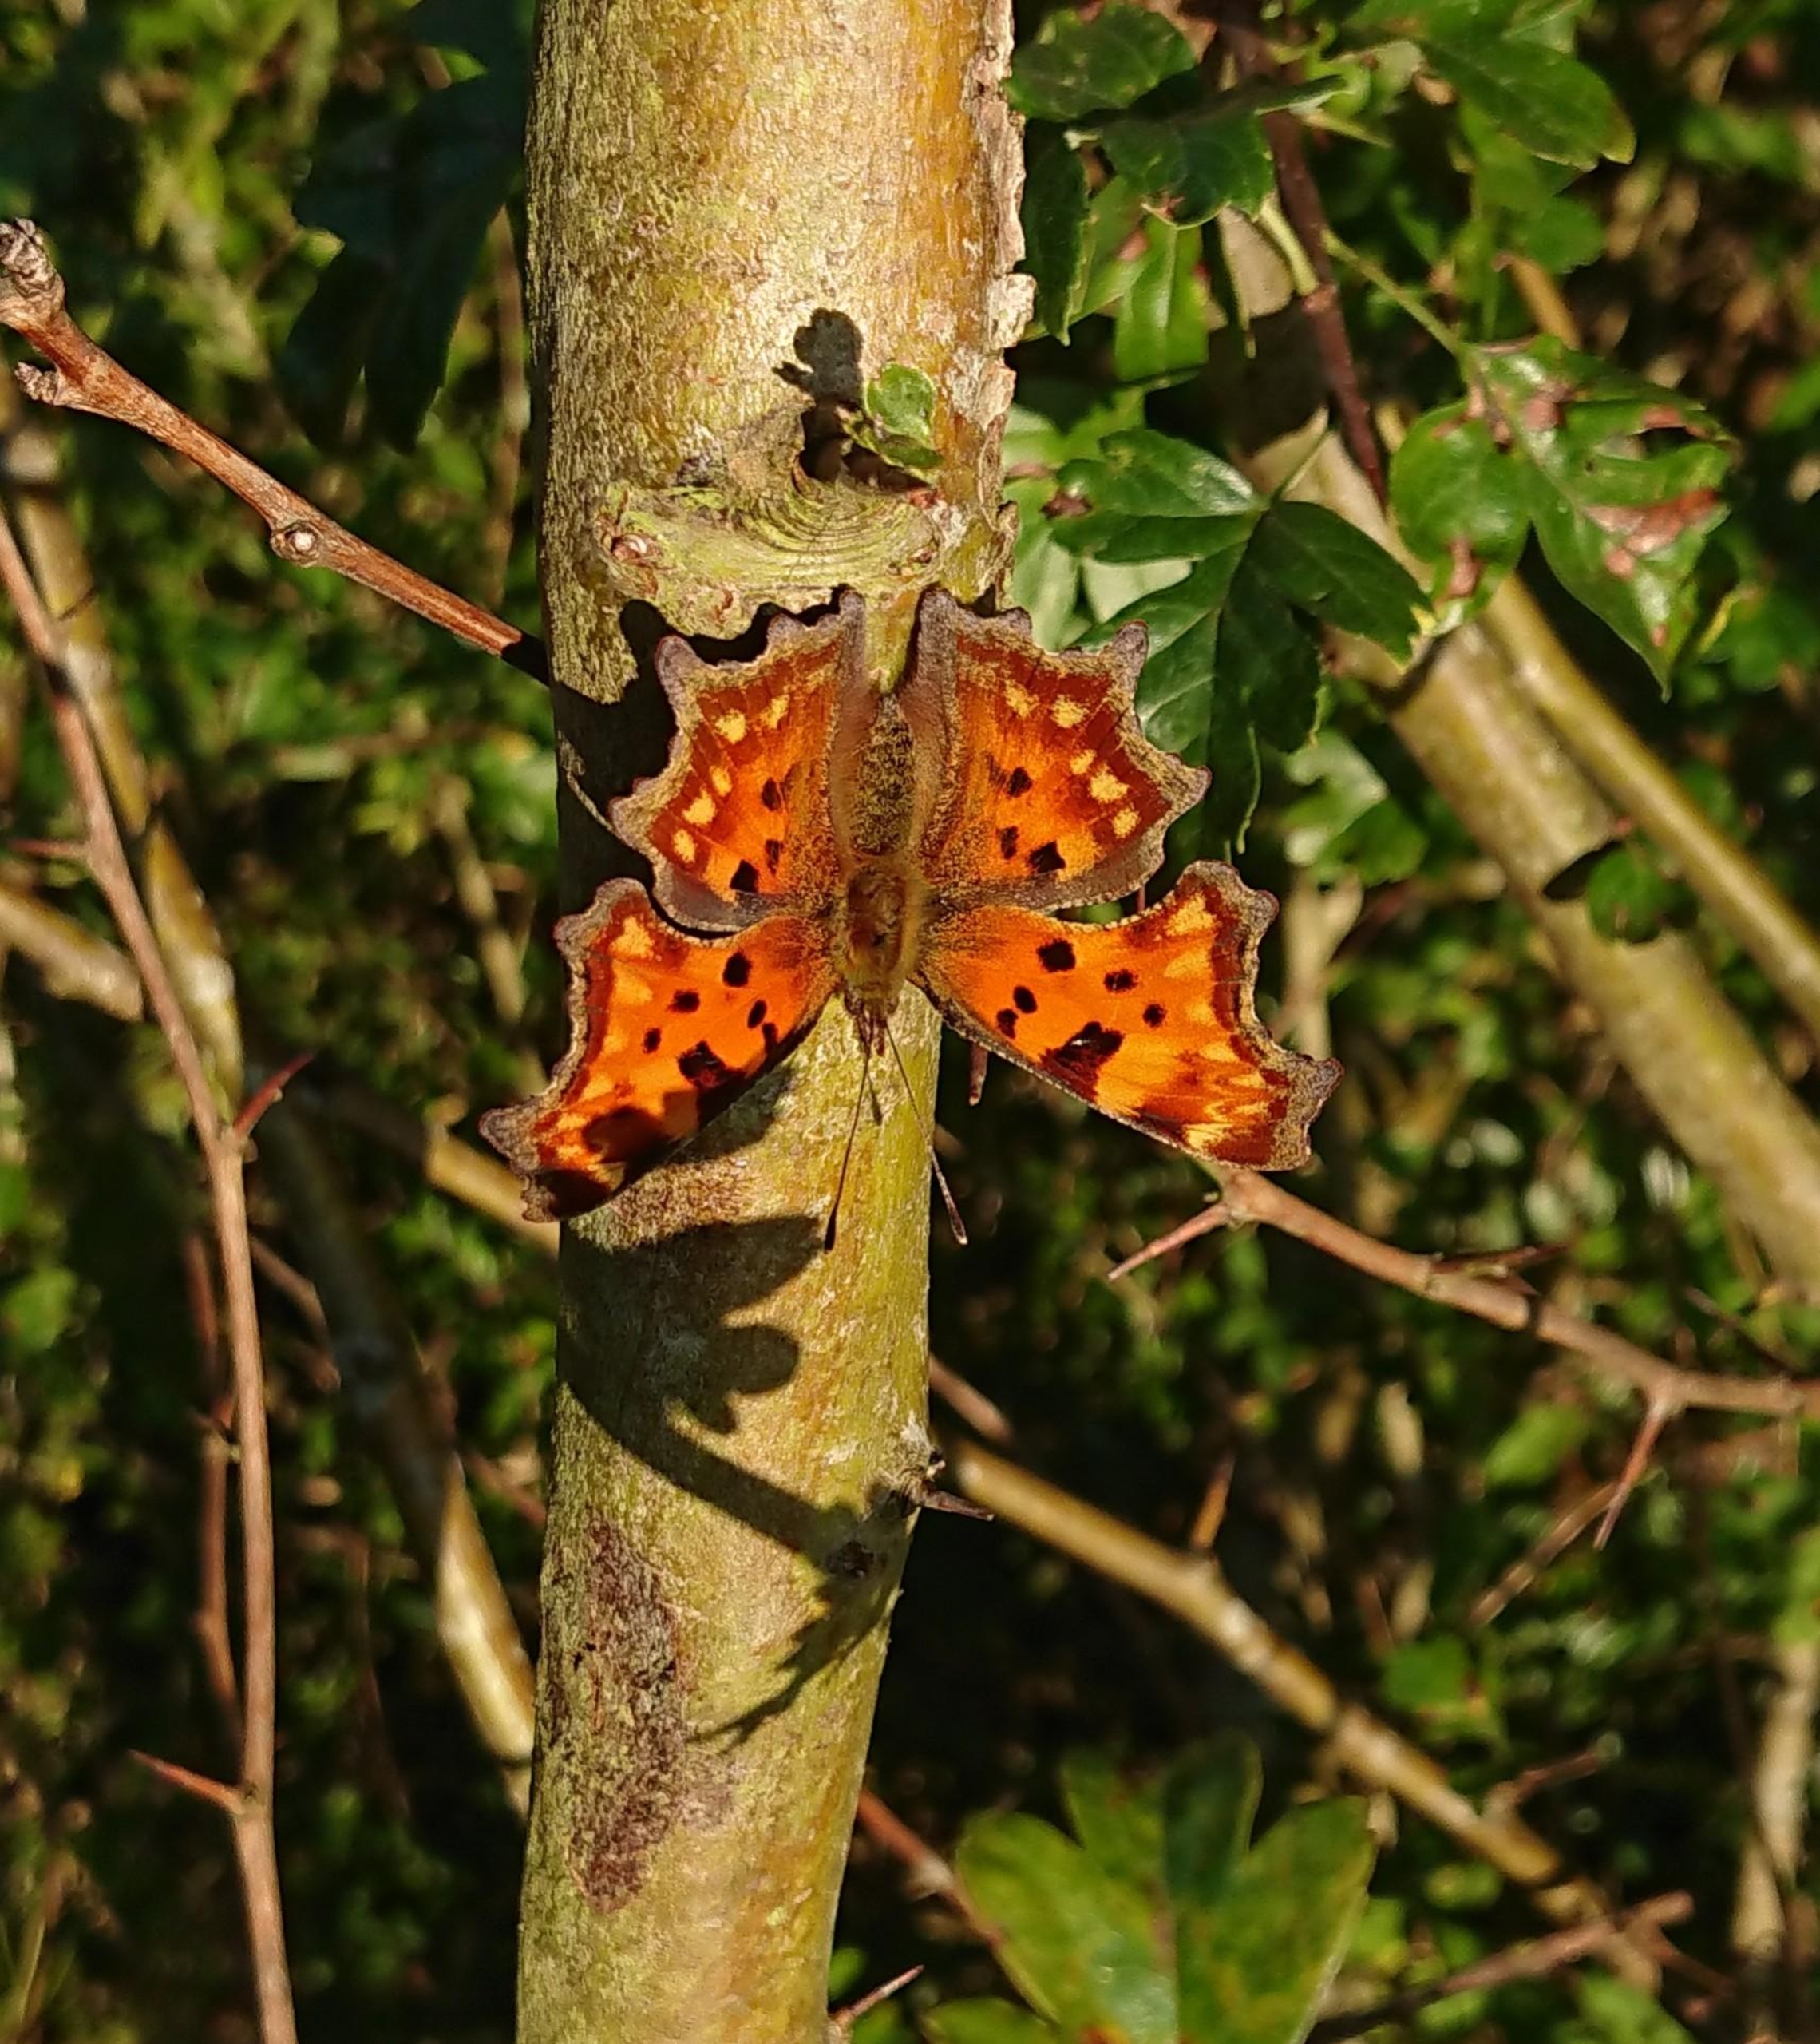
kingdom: Animalia
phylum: Arthropoda
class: Insecta
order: Lepidoptera
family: Nymphalidae
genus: Polygonia
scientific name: Polygonia c-album
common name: Det hvide C
